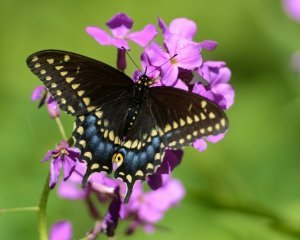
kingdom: Animalia
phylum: Arthropoda
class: Insecta
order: Lepidoptera
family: Papilionidae
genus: Papilio
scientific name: Papilio polyxenes
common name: Black Swallowtail
